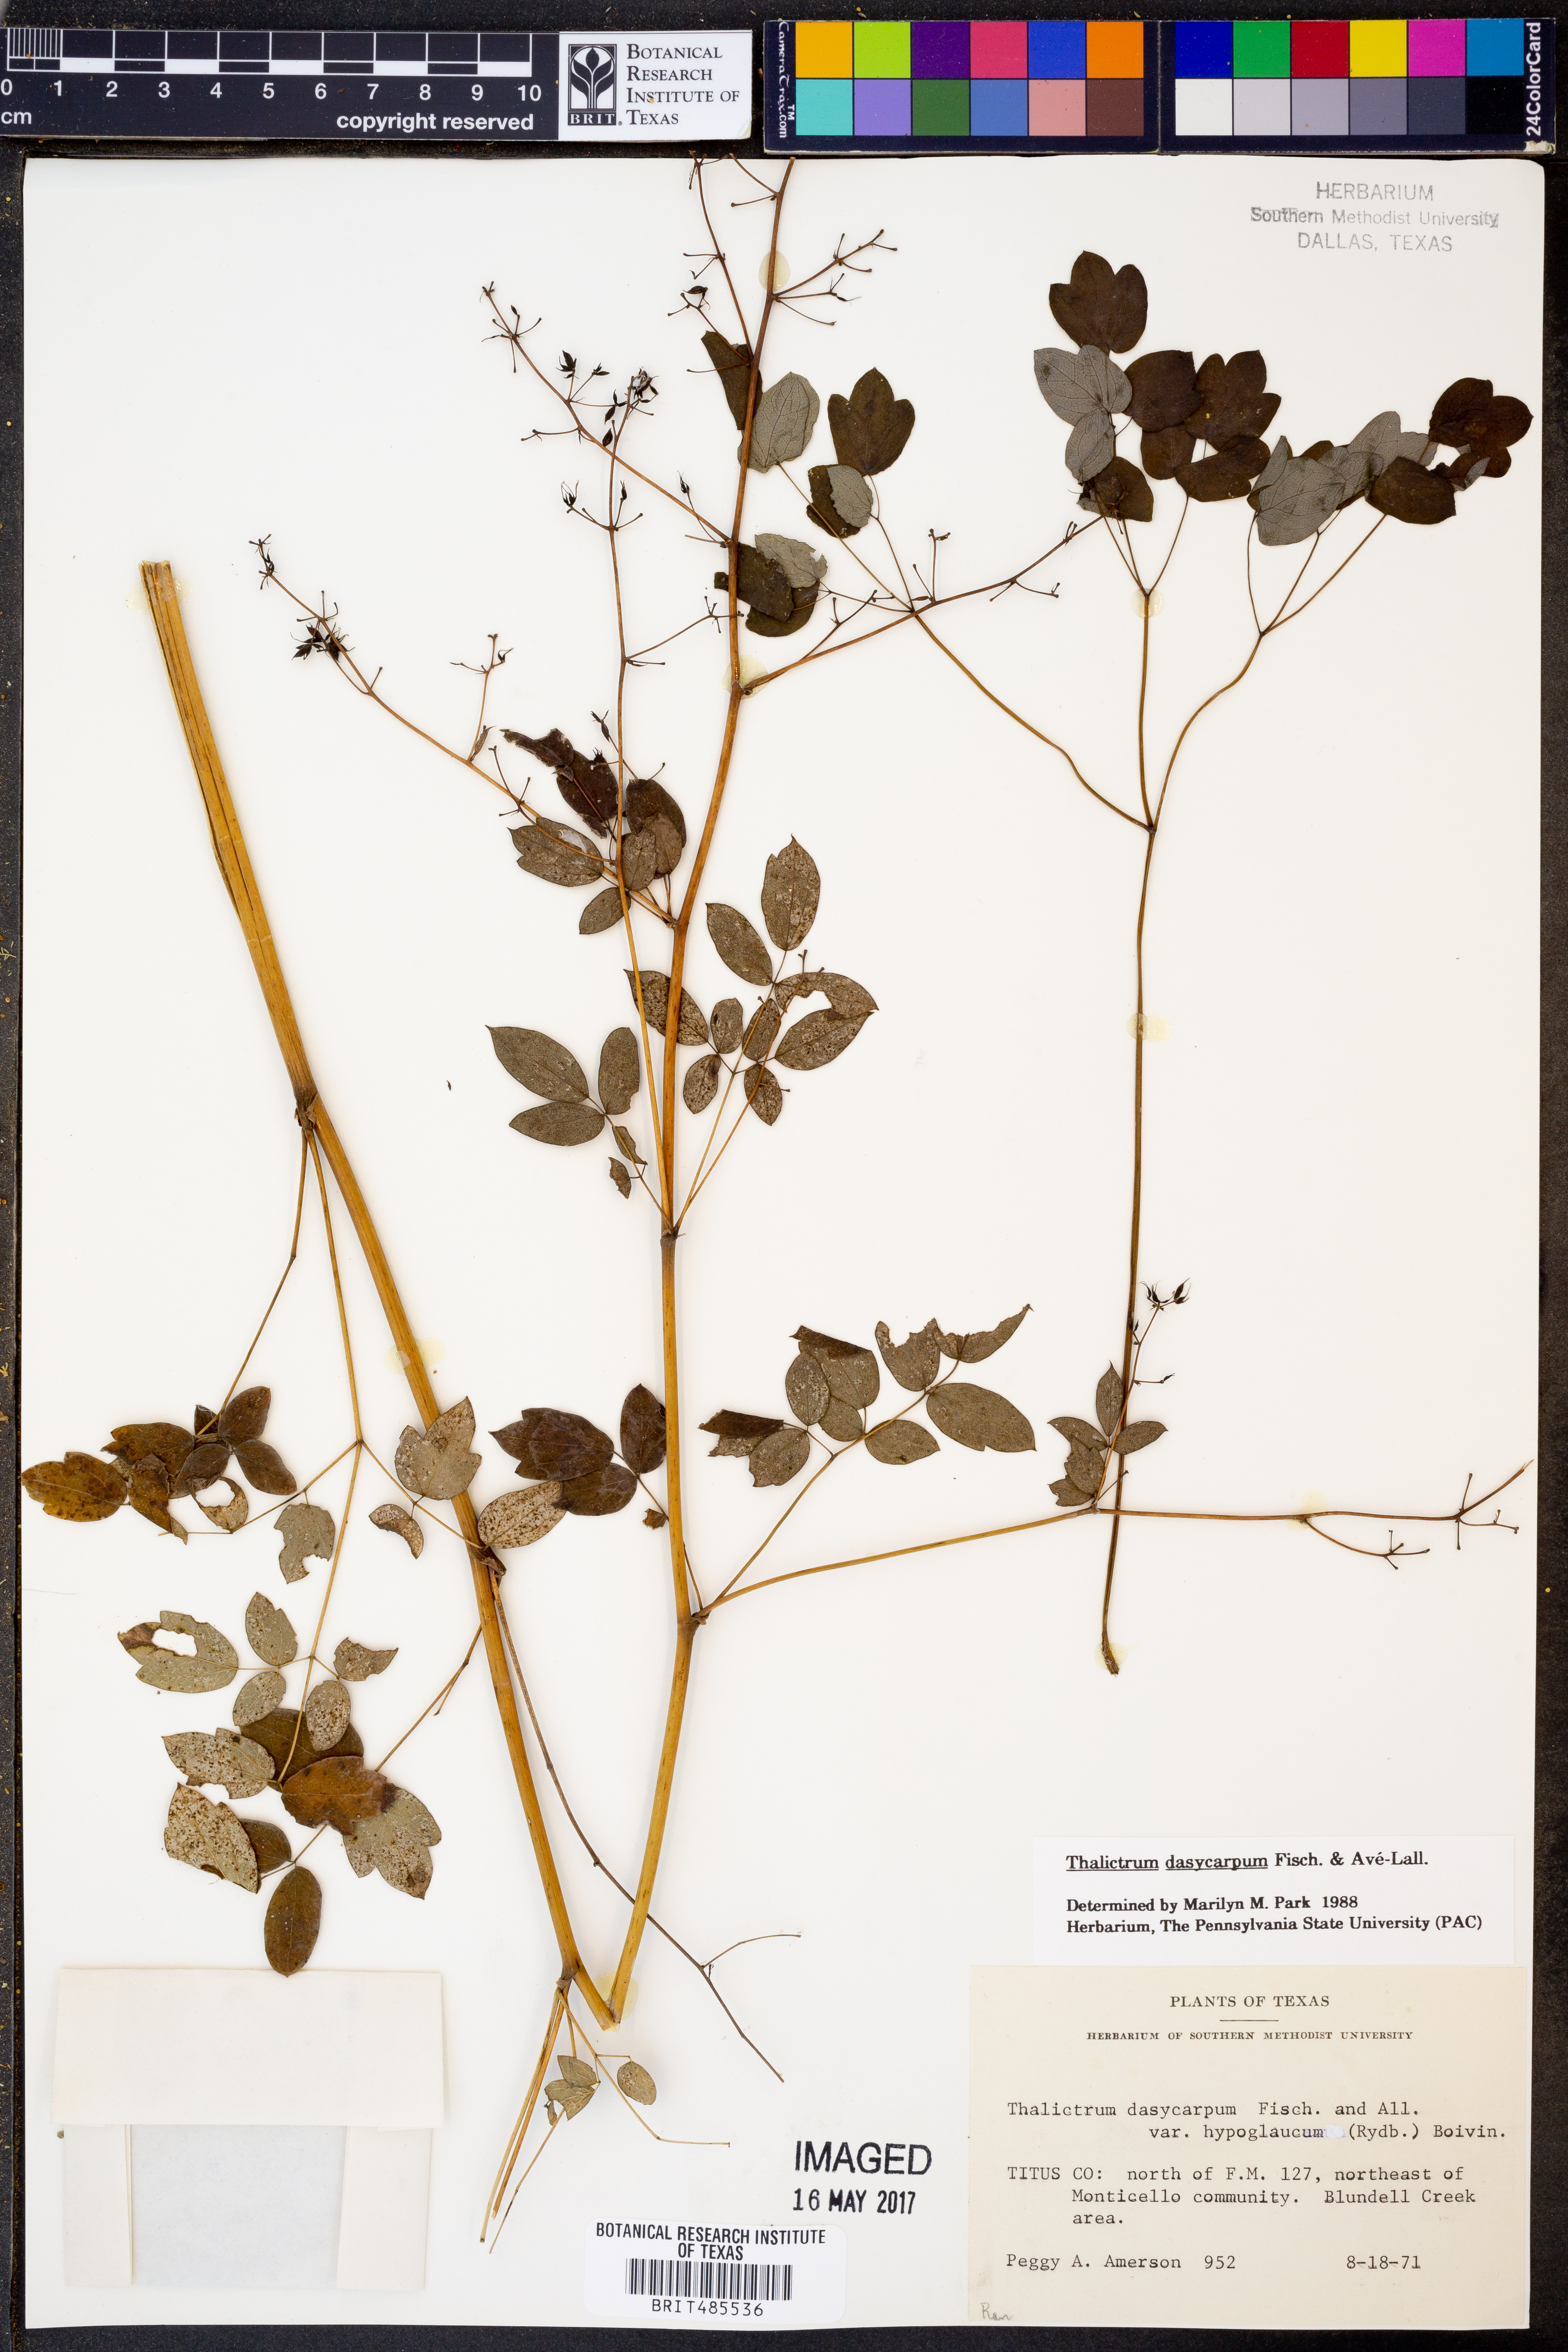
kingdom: Plantae
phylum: Tracheophyta
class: Magnoliopsida
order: Ranunculales
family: Ranunculaceae
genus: Thalictrum
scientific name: Thalictrum dasycarpum
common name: Purple meadow-rue
